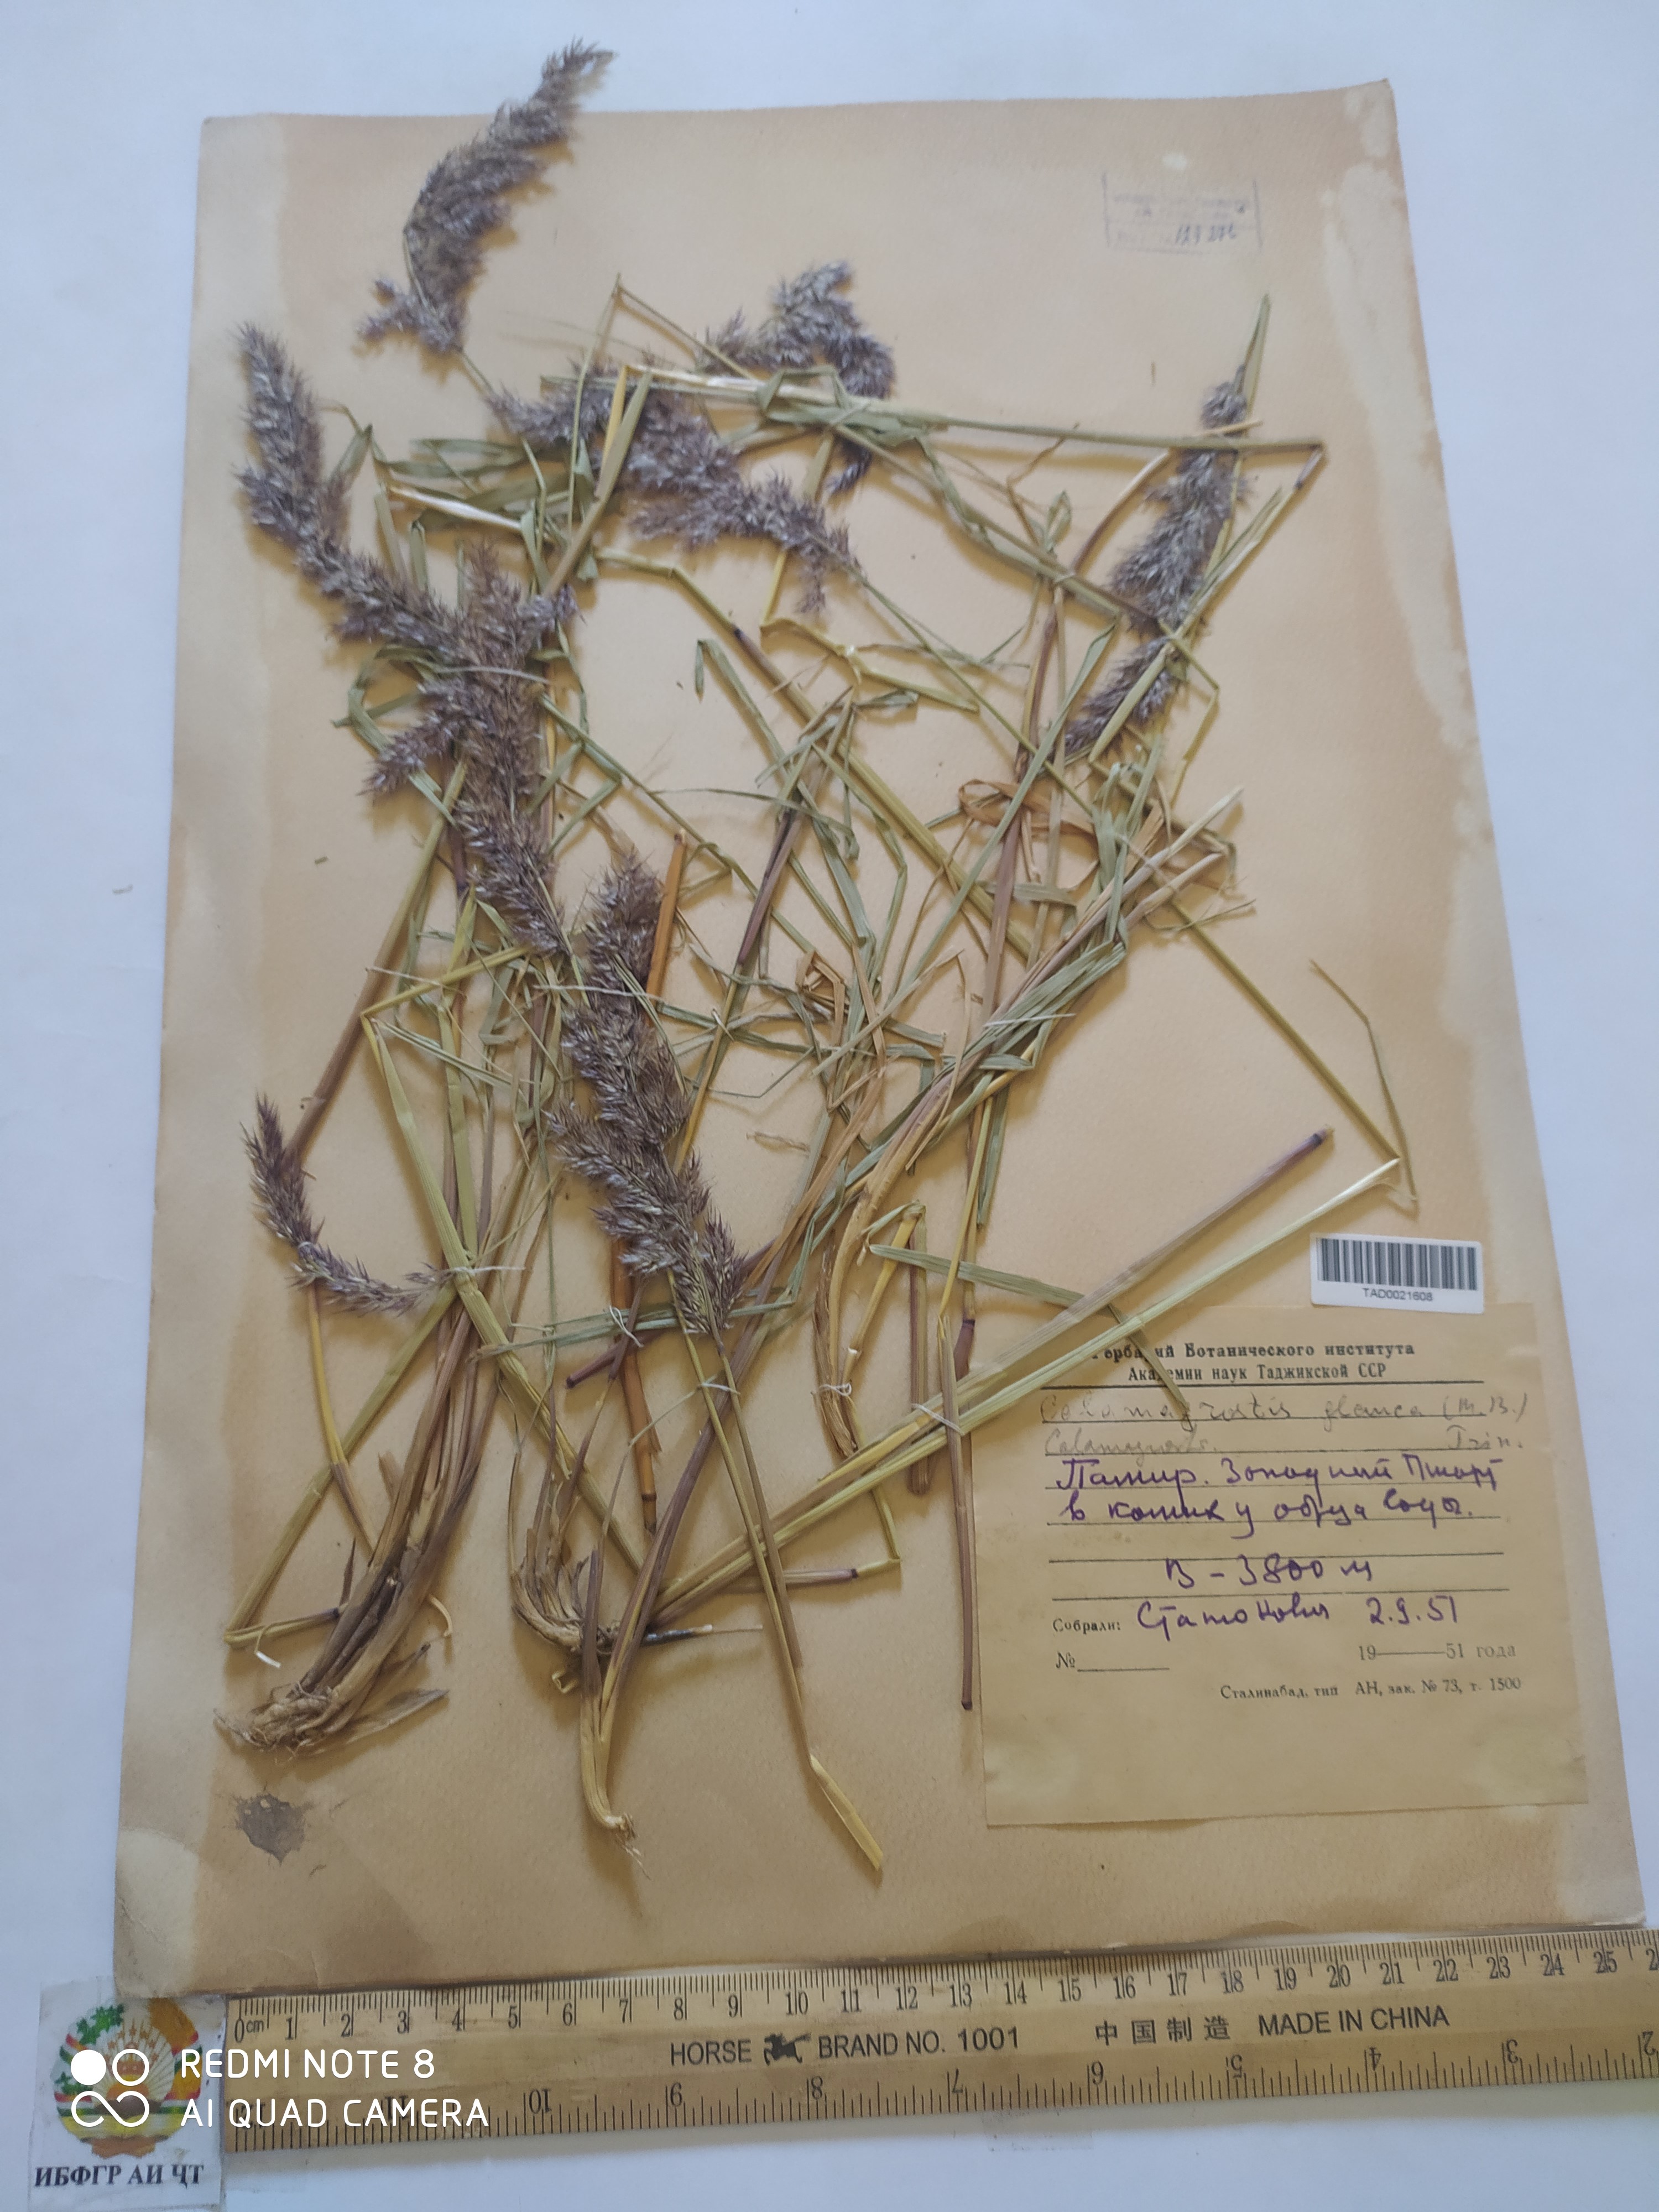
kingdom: Plantae
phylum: Tracheophyta
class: Liliopsida
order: Poales
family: Poaceae
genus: Calamagrostis
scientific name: Calamagrostis pseudophragmites
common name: Coastal small-reed
